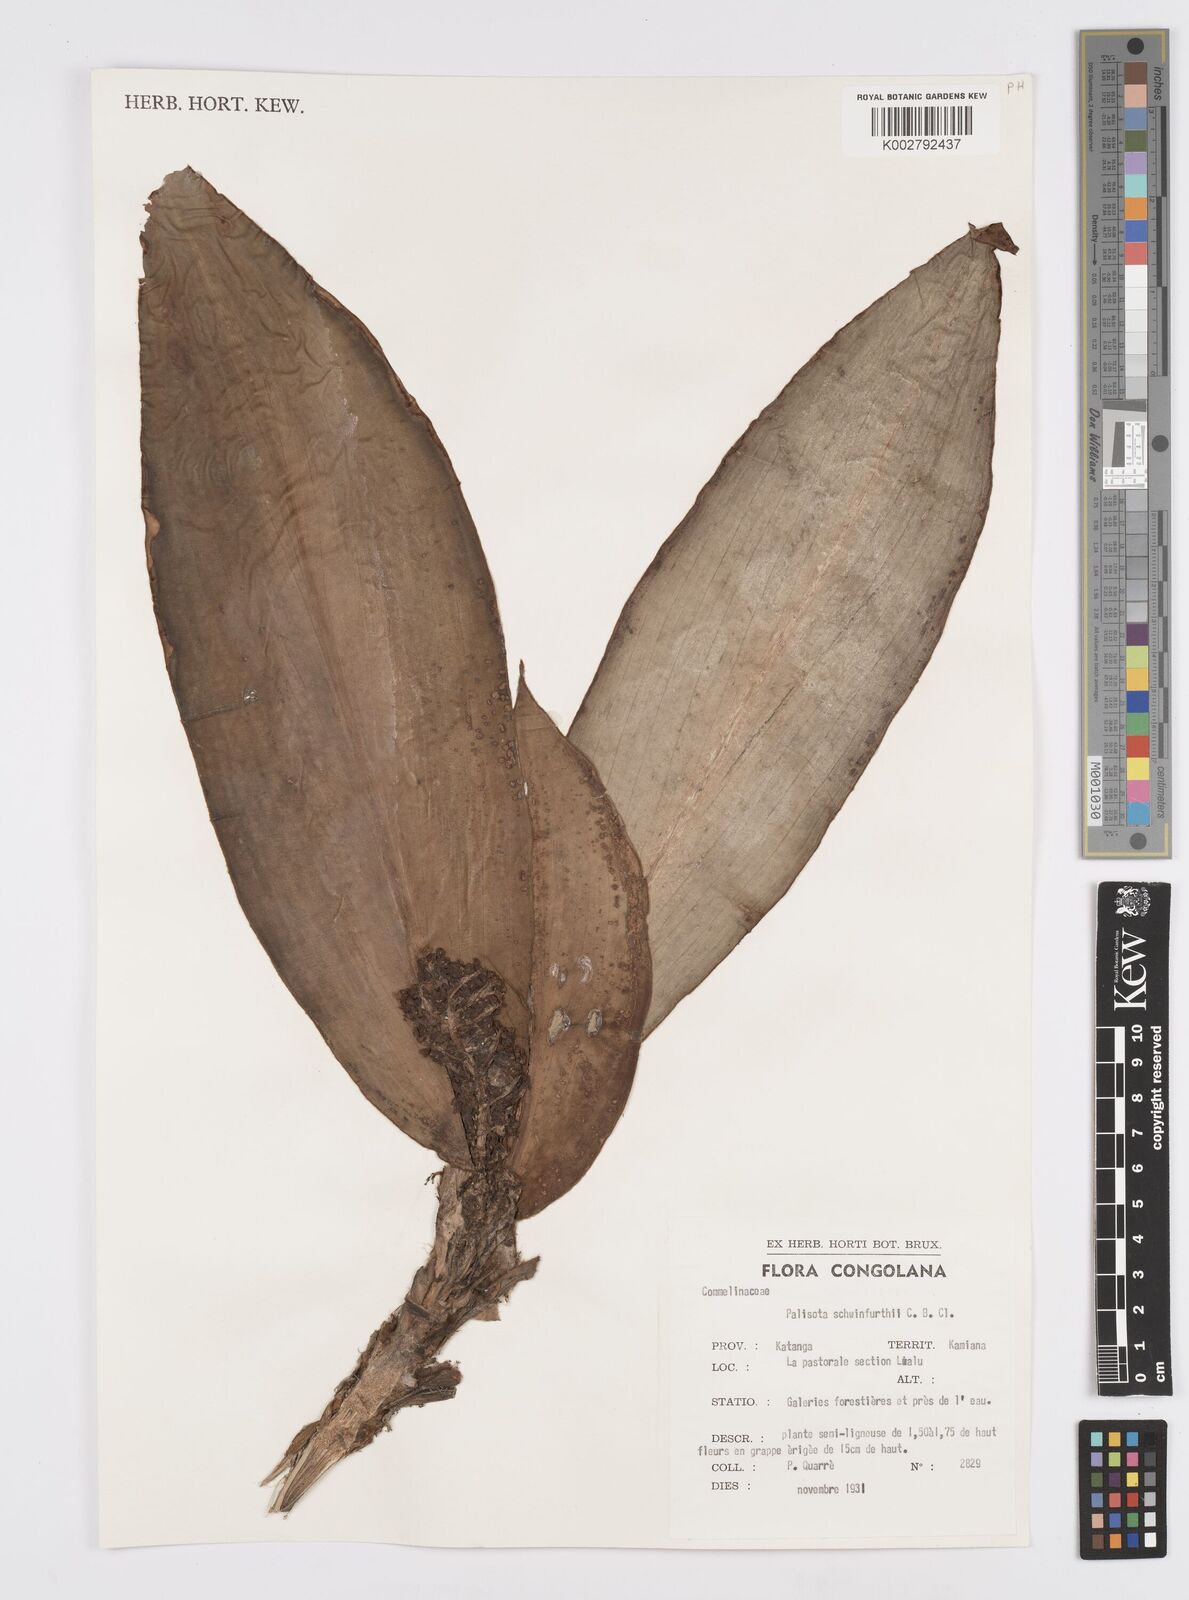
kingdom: Plantae
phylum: Tracheophyta
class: Liliopsida
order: Commelinales
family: Commelinaceae
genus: Palisota
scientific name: Palisota schweinfurthii
